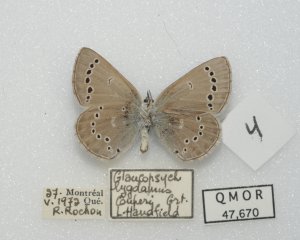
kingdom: Animalia
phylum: Arthropoda
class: Insecta
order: Lepidoptera
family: Lycaenidae
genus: Glaucopsyche
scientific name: Glaucopsyche lygdamus
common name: Silvery Blue
